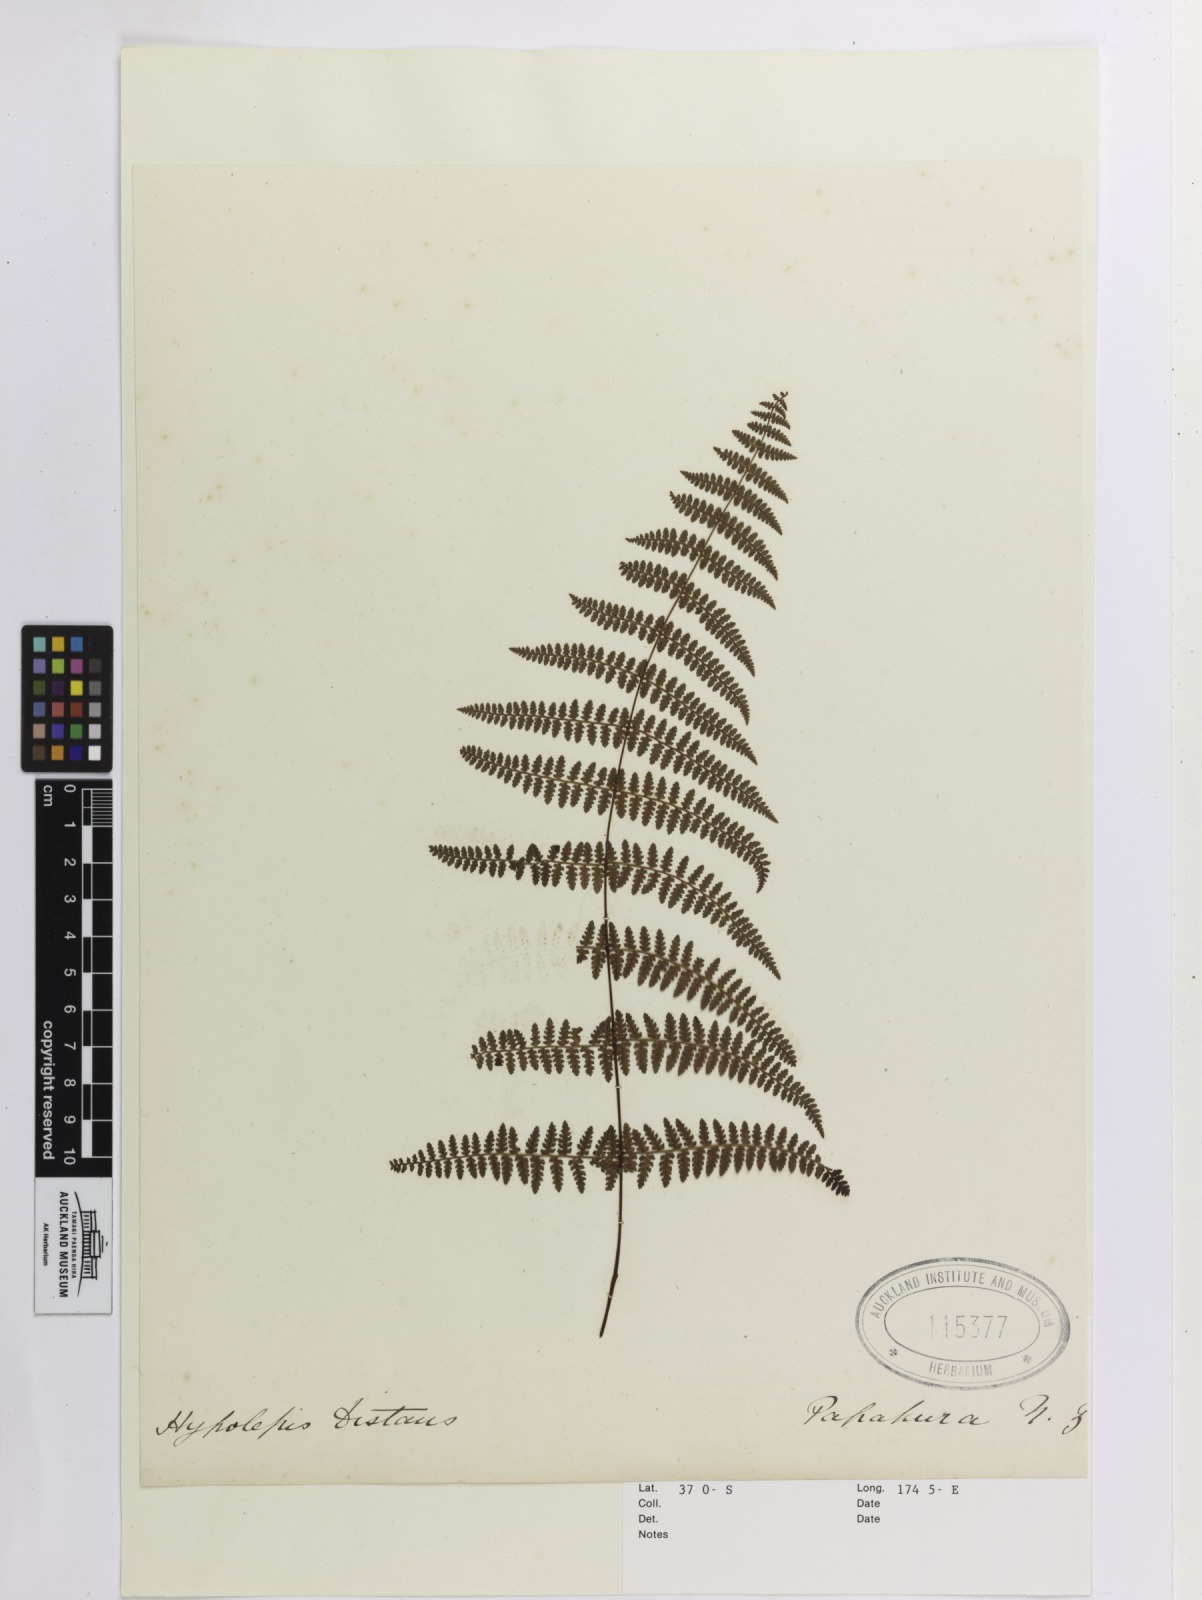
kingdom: Plantae
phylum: Tracheophyta
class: Polypodiopsida
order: Polypodiales
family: Dennstaedtiaceae
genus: Hiya
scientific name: Hiya distans
